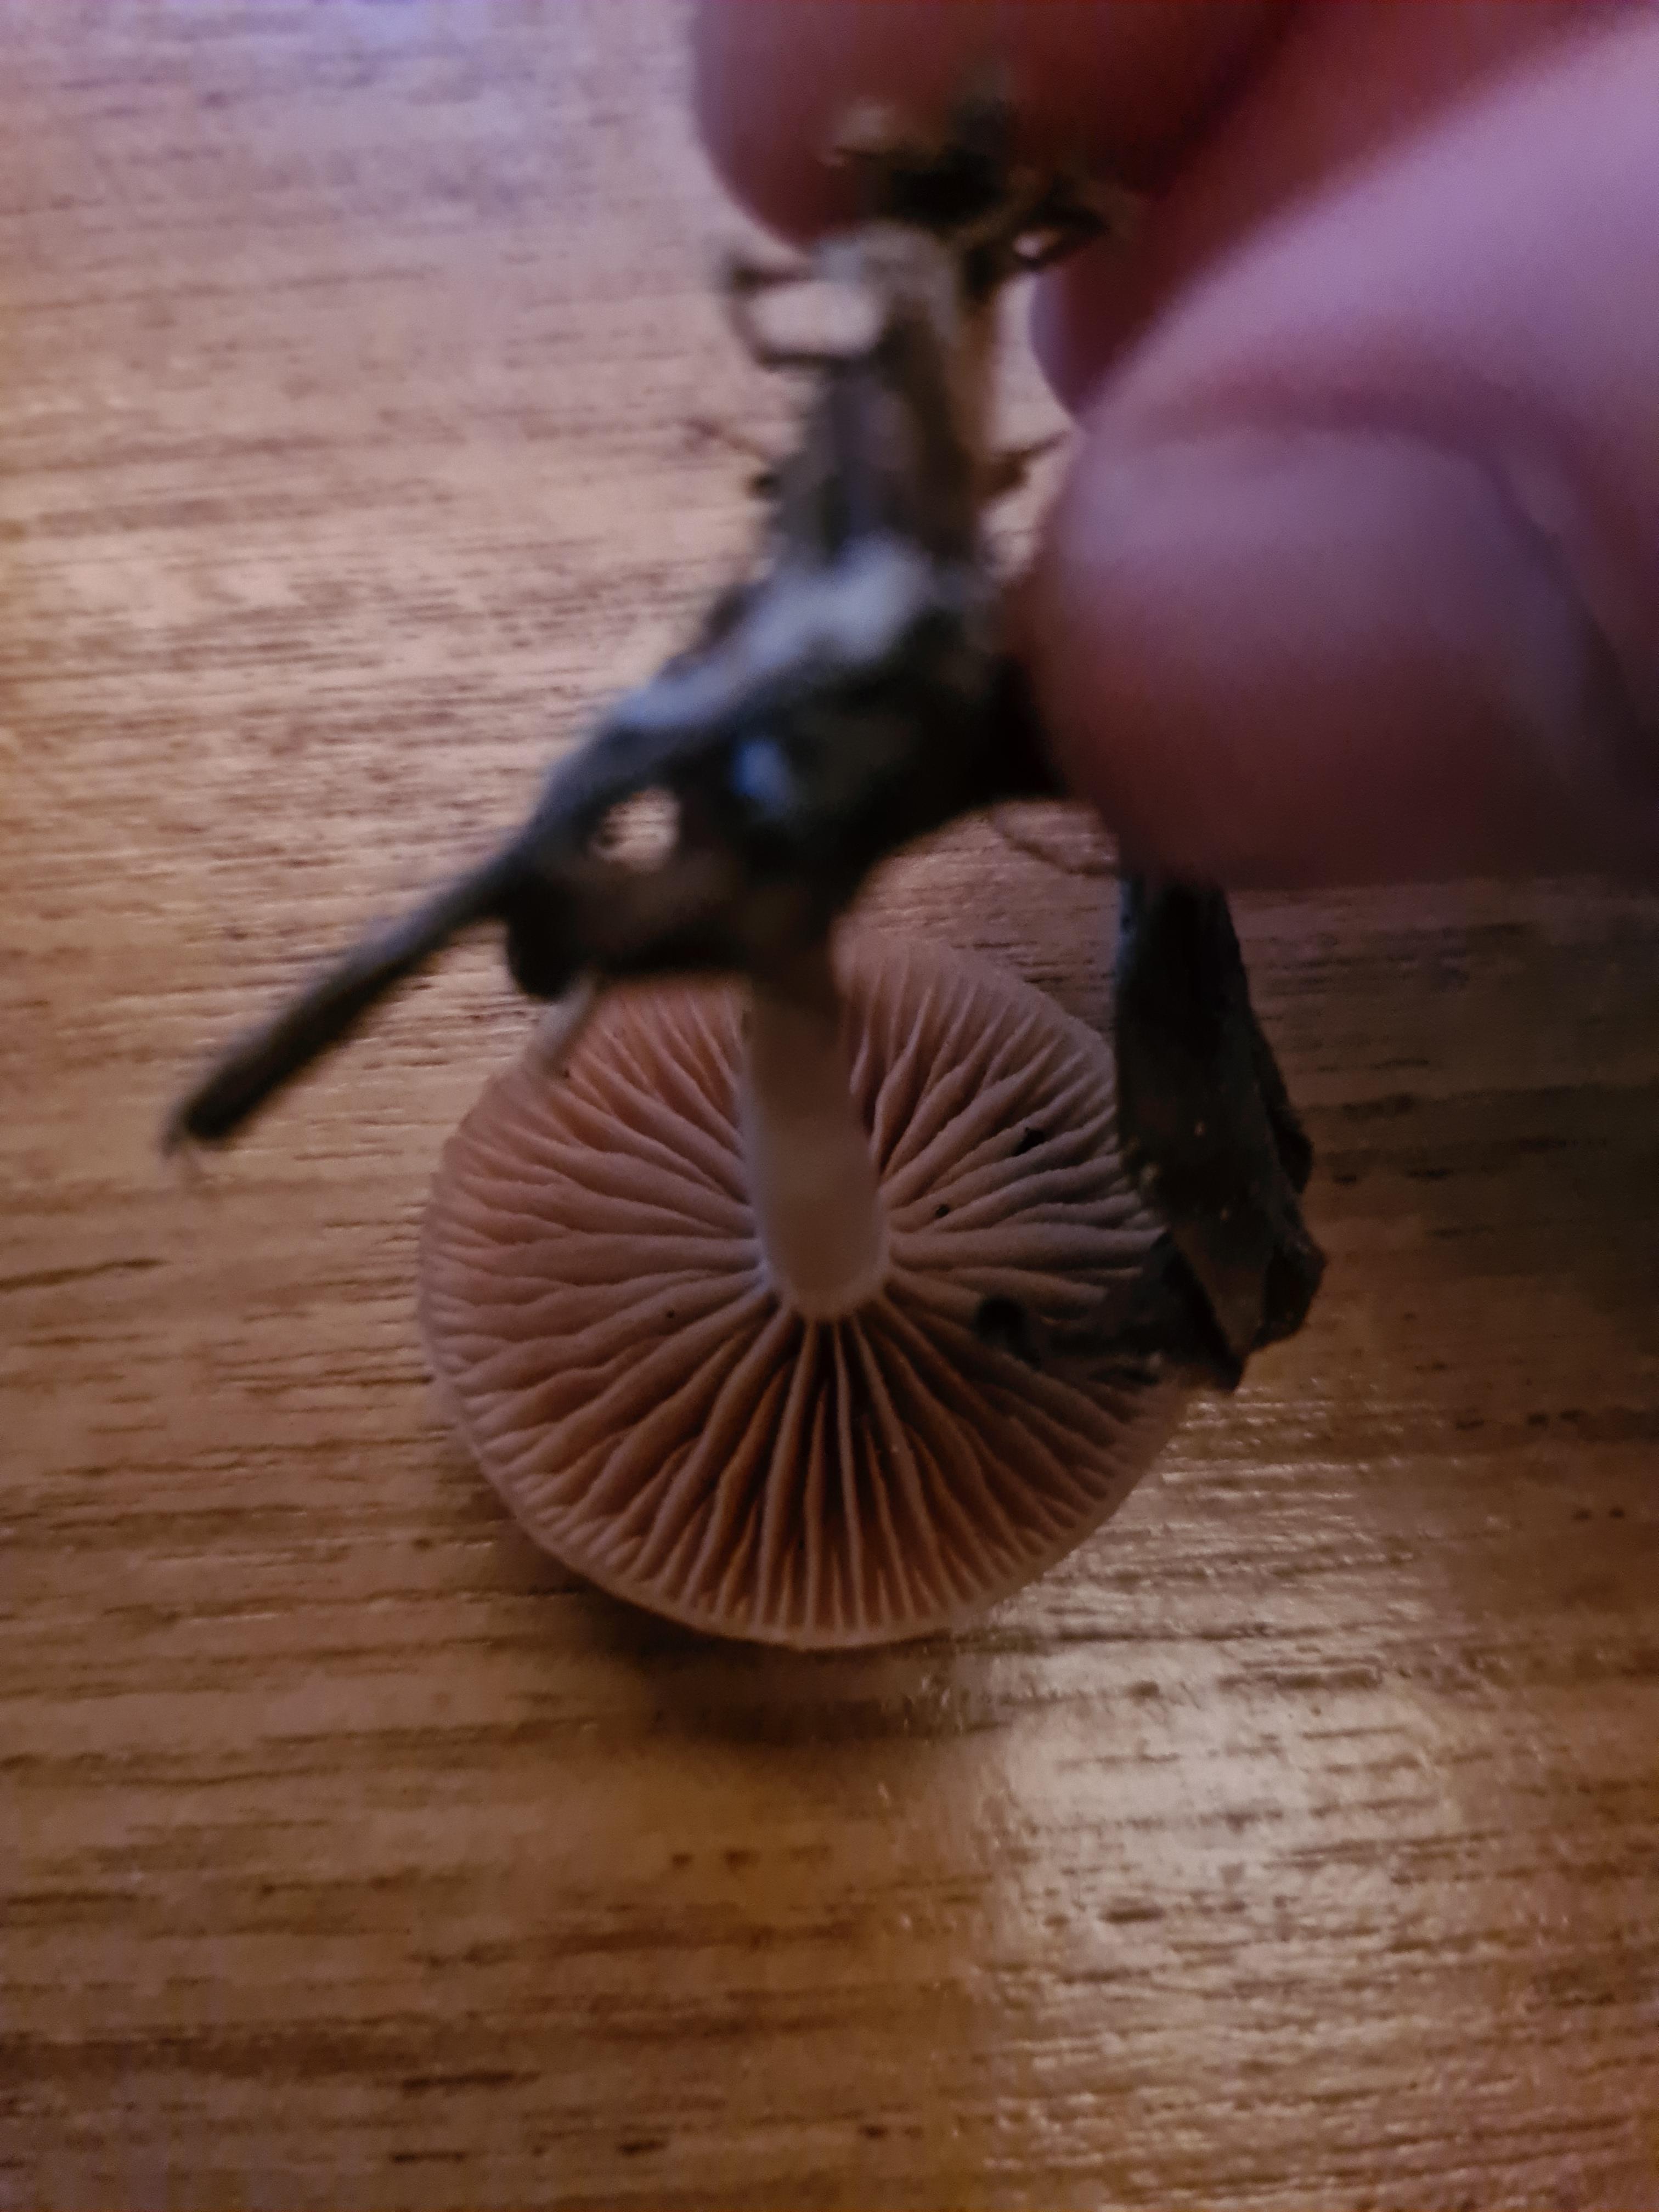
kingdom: Fungi
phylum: Basidiomycota
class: Agaricomycetes
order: Agaricales
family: Tubariaceae
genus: Tubaria
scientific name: Tubaria furfuracea
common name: kliddet fnughat
